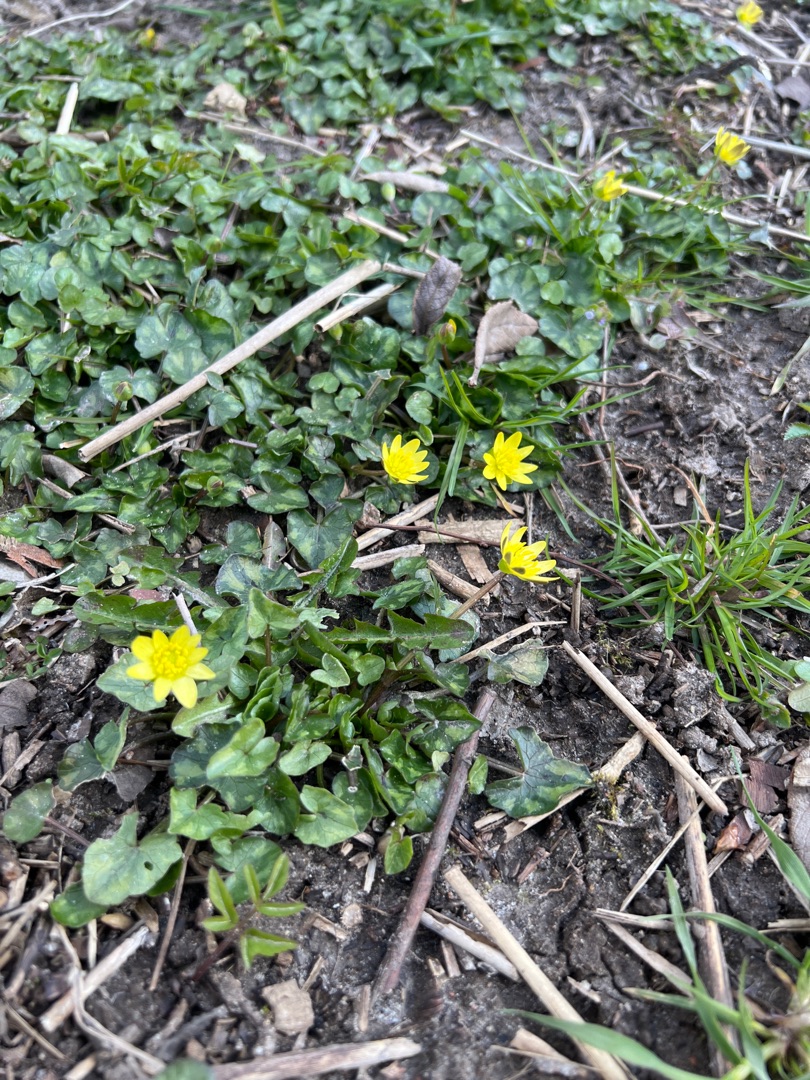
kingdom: Plantae
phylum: Tracheophyta
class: Magnoliopsida
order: Ranunculales
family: Ranunculaceae
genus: Ficaria
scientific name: Ficaria verna
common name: Almindelig vorterod
